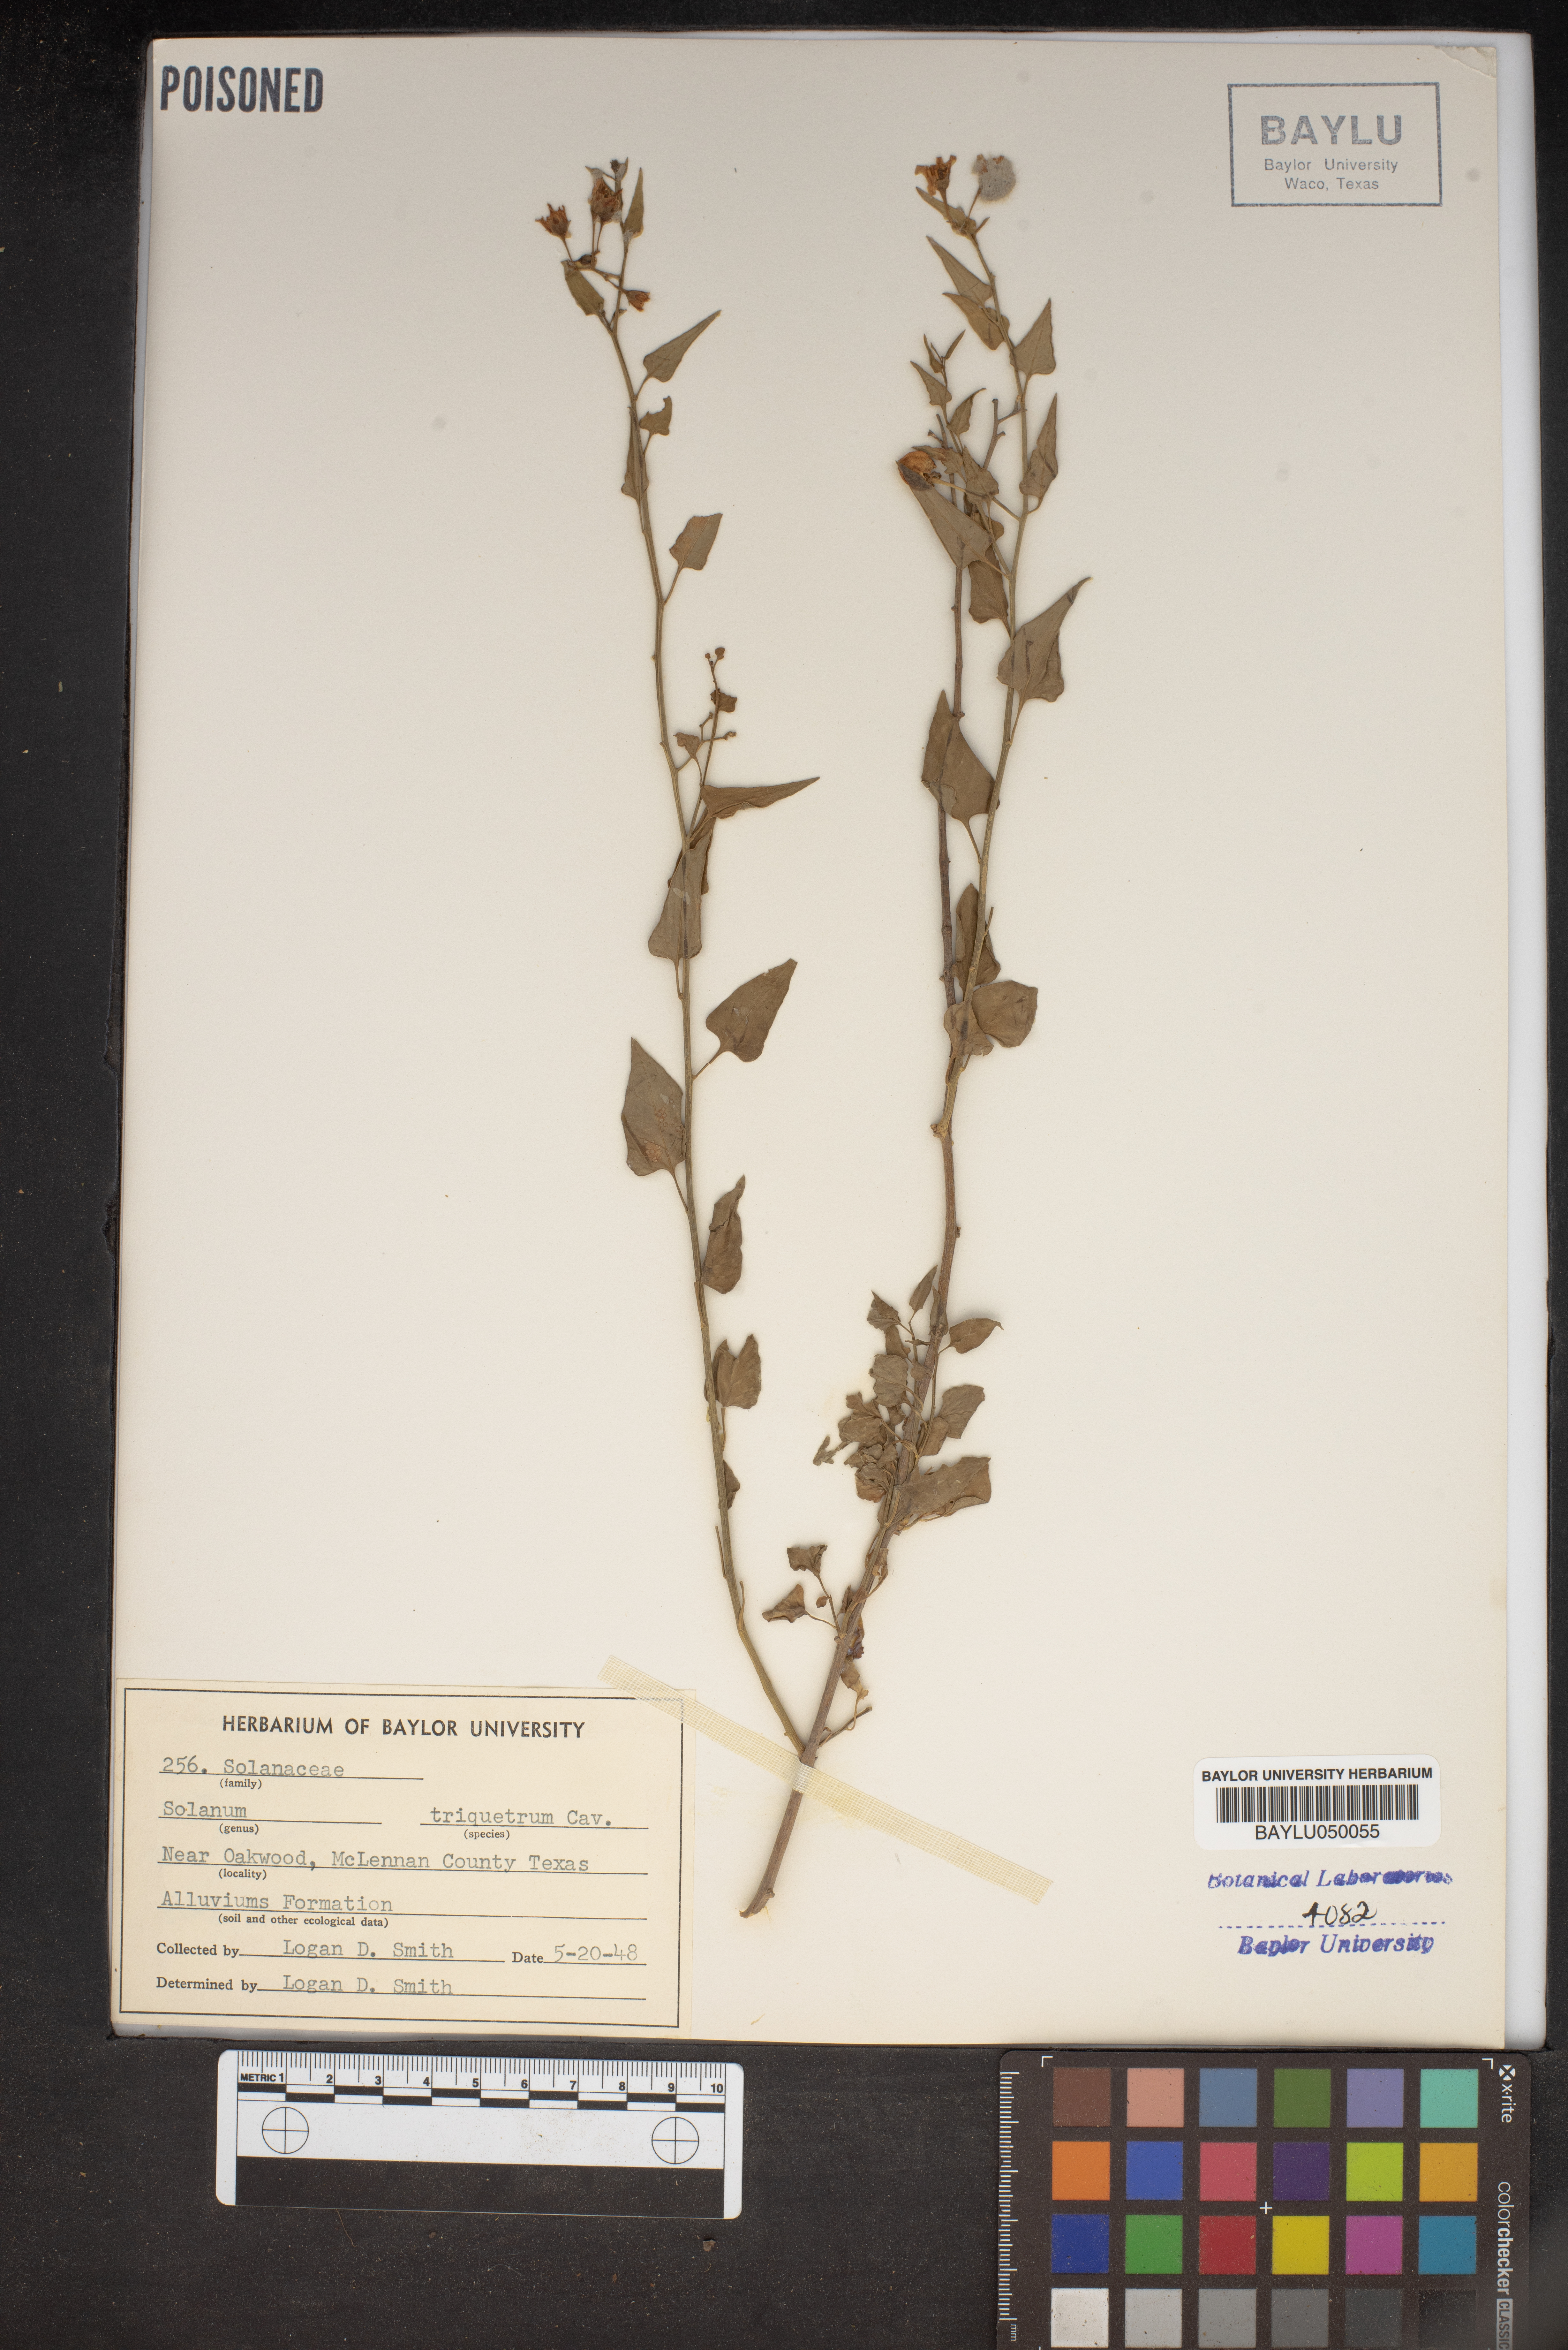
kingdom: Plantae
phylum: Tracheophyta
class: Magnoliopsida
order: Solanales
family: Solanaceae
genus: Solanum
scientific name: Solanum triquetrum
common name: Texas nightshade
